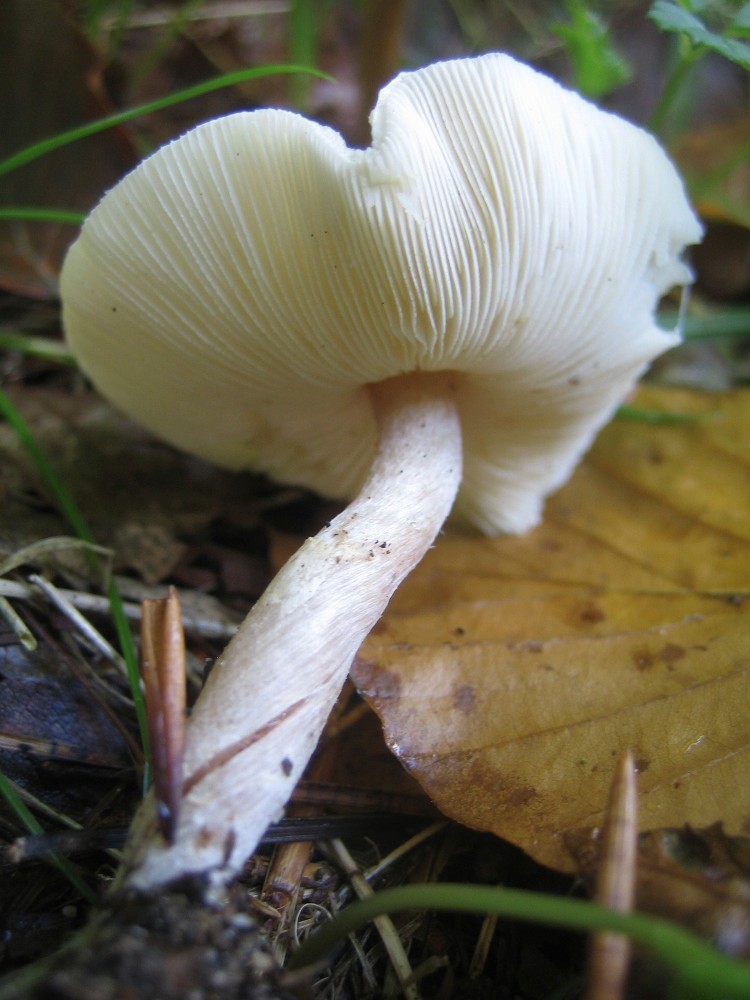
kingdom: Fungi
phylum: Basidiomycota
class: Agaricomycetes
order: Agaricales
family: Agaricaceae
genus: Lepiota
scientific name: Lepiota cristata
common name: stinkende parasolhat
